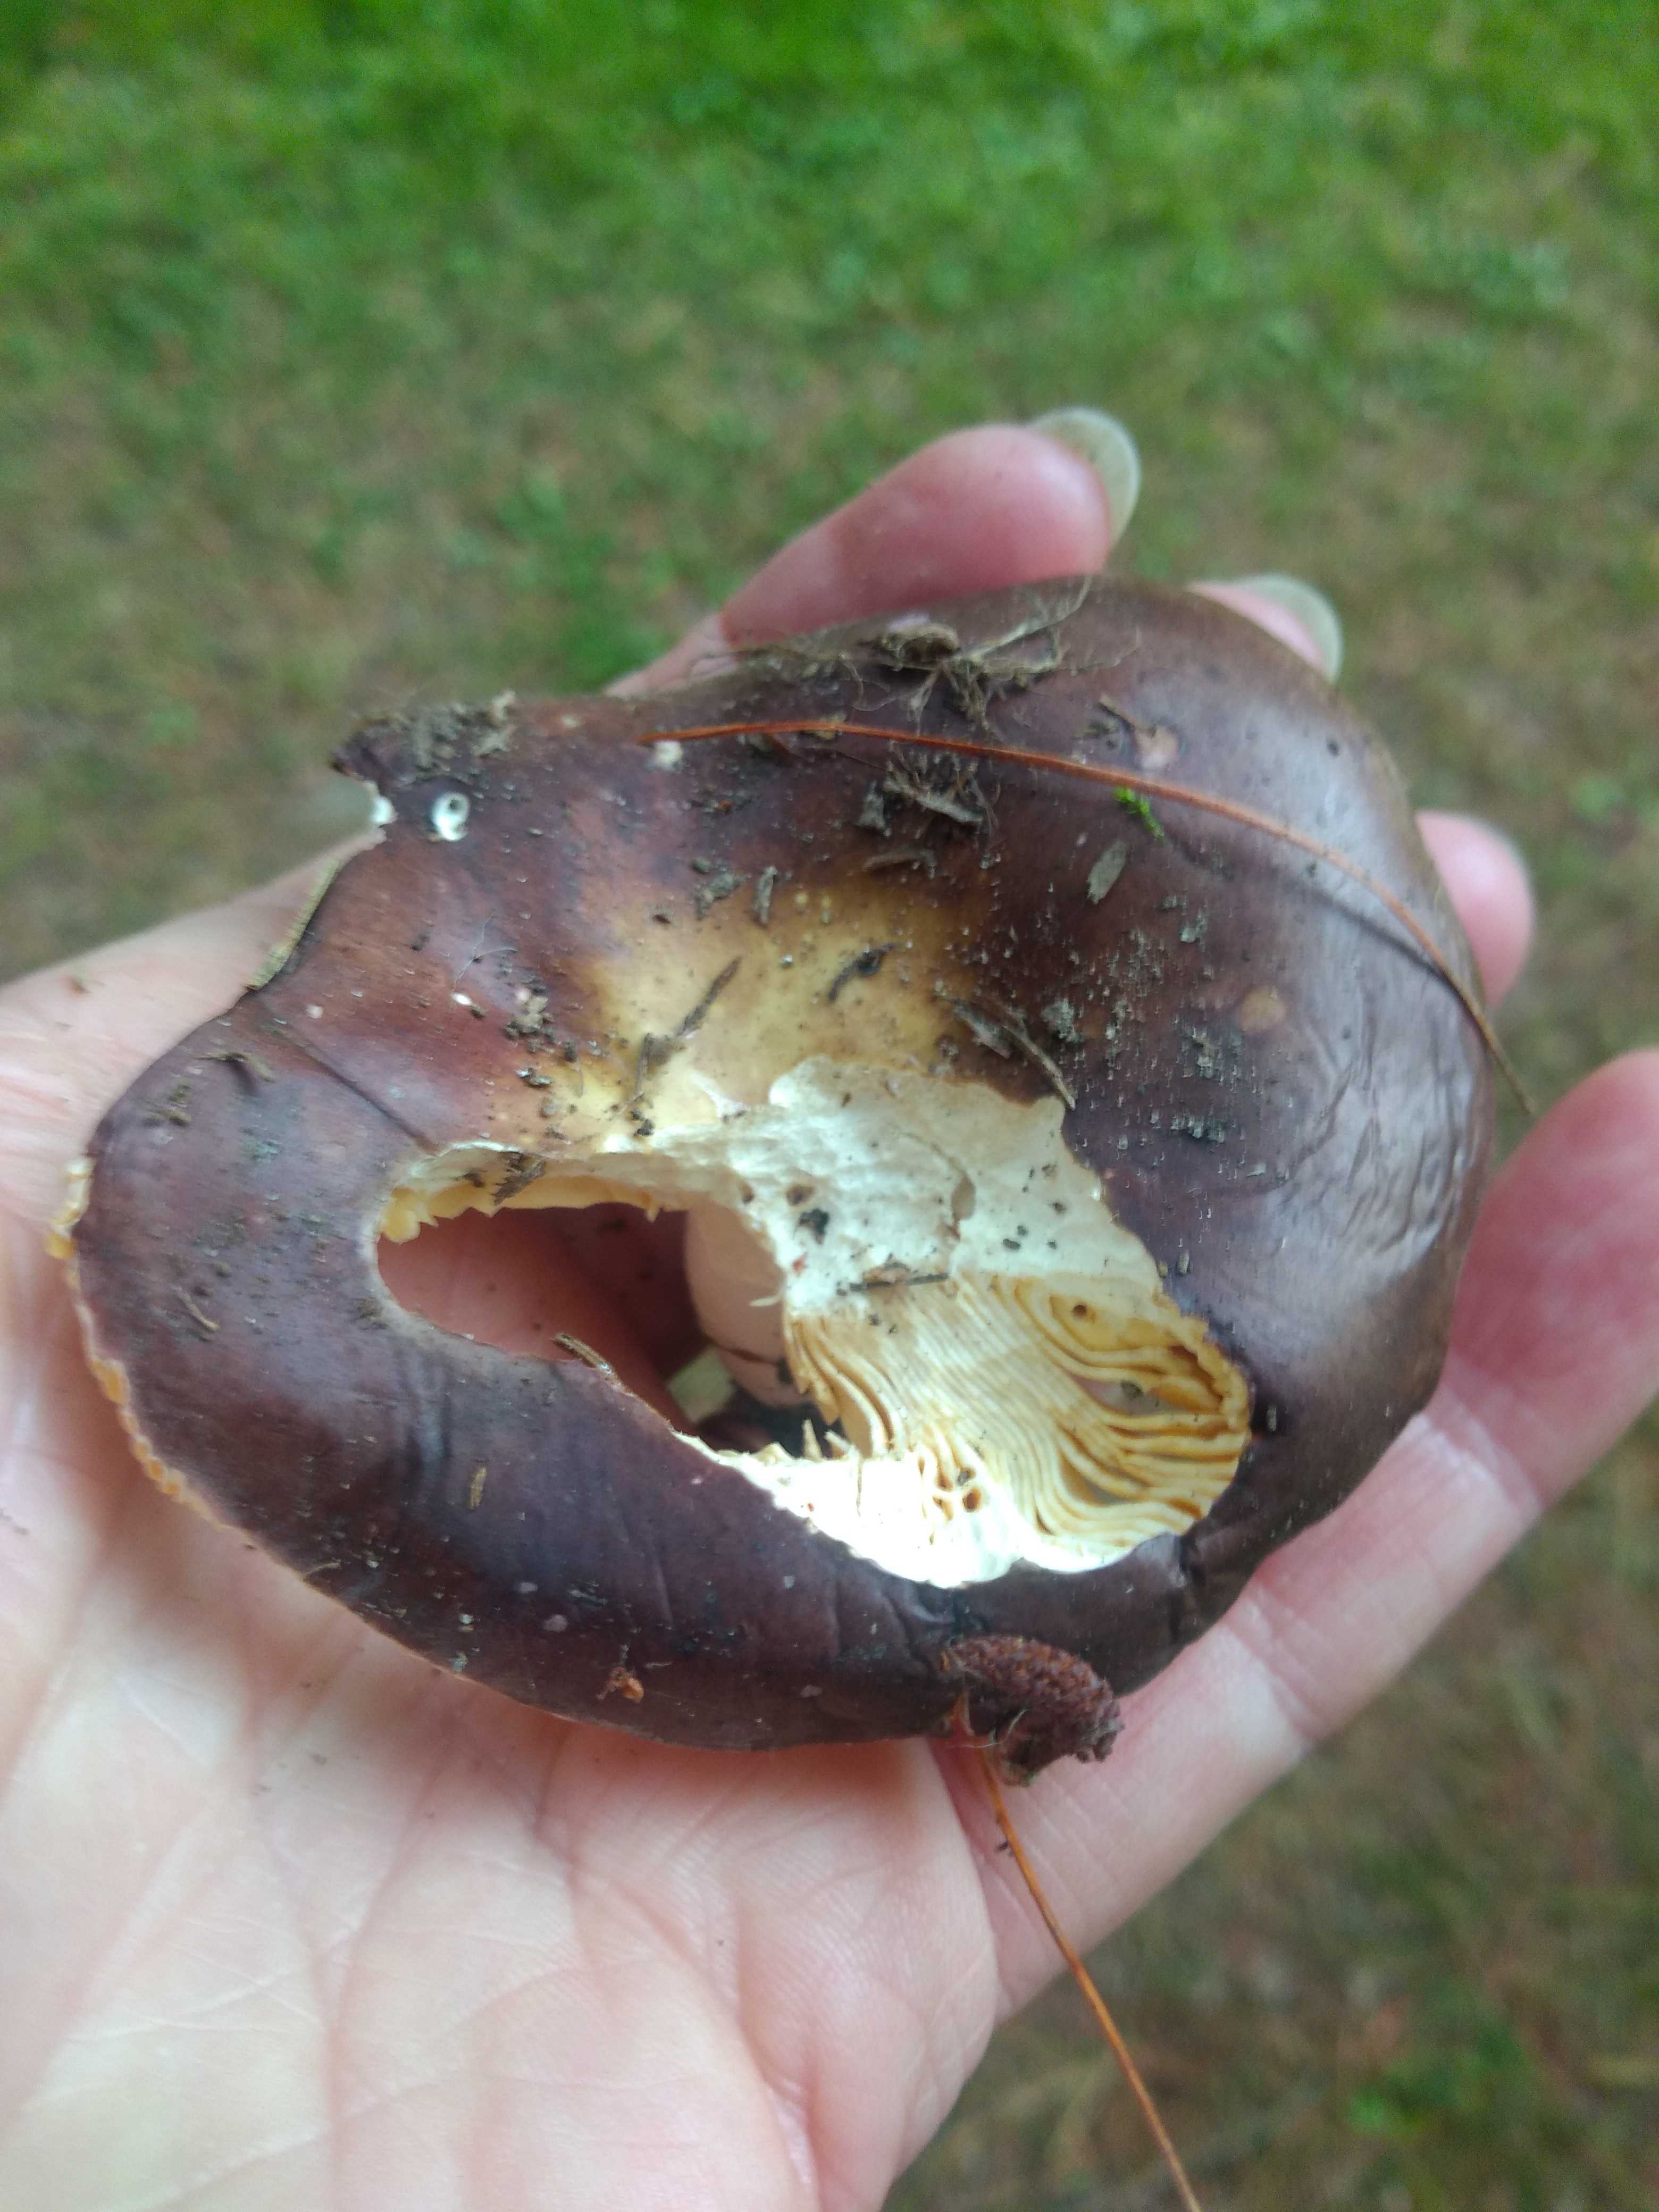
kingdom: Fungi
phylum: Basidiomycota
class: Agaricomycetes
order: Russulales
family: Russulaceae
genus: Russula
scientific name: Russula integra
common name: mandel-skørhat
